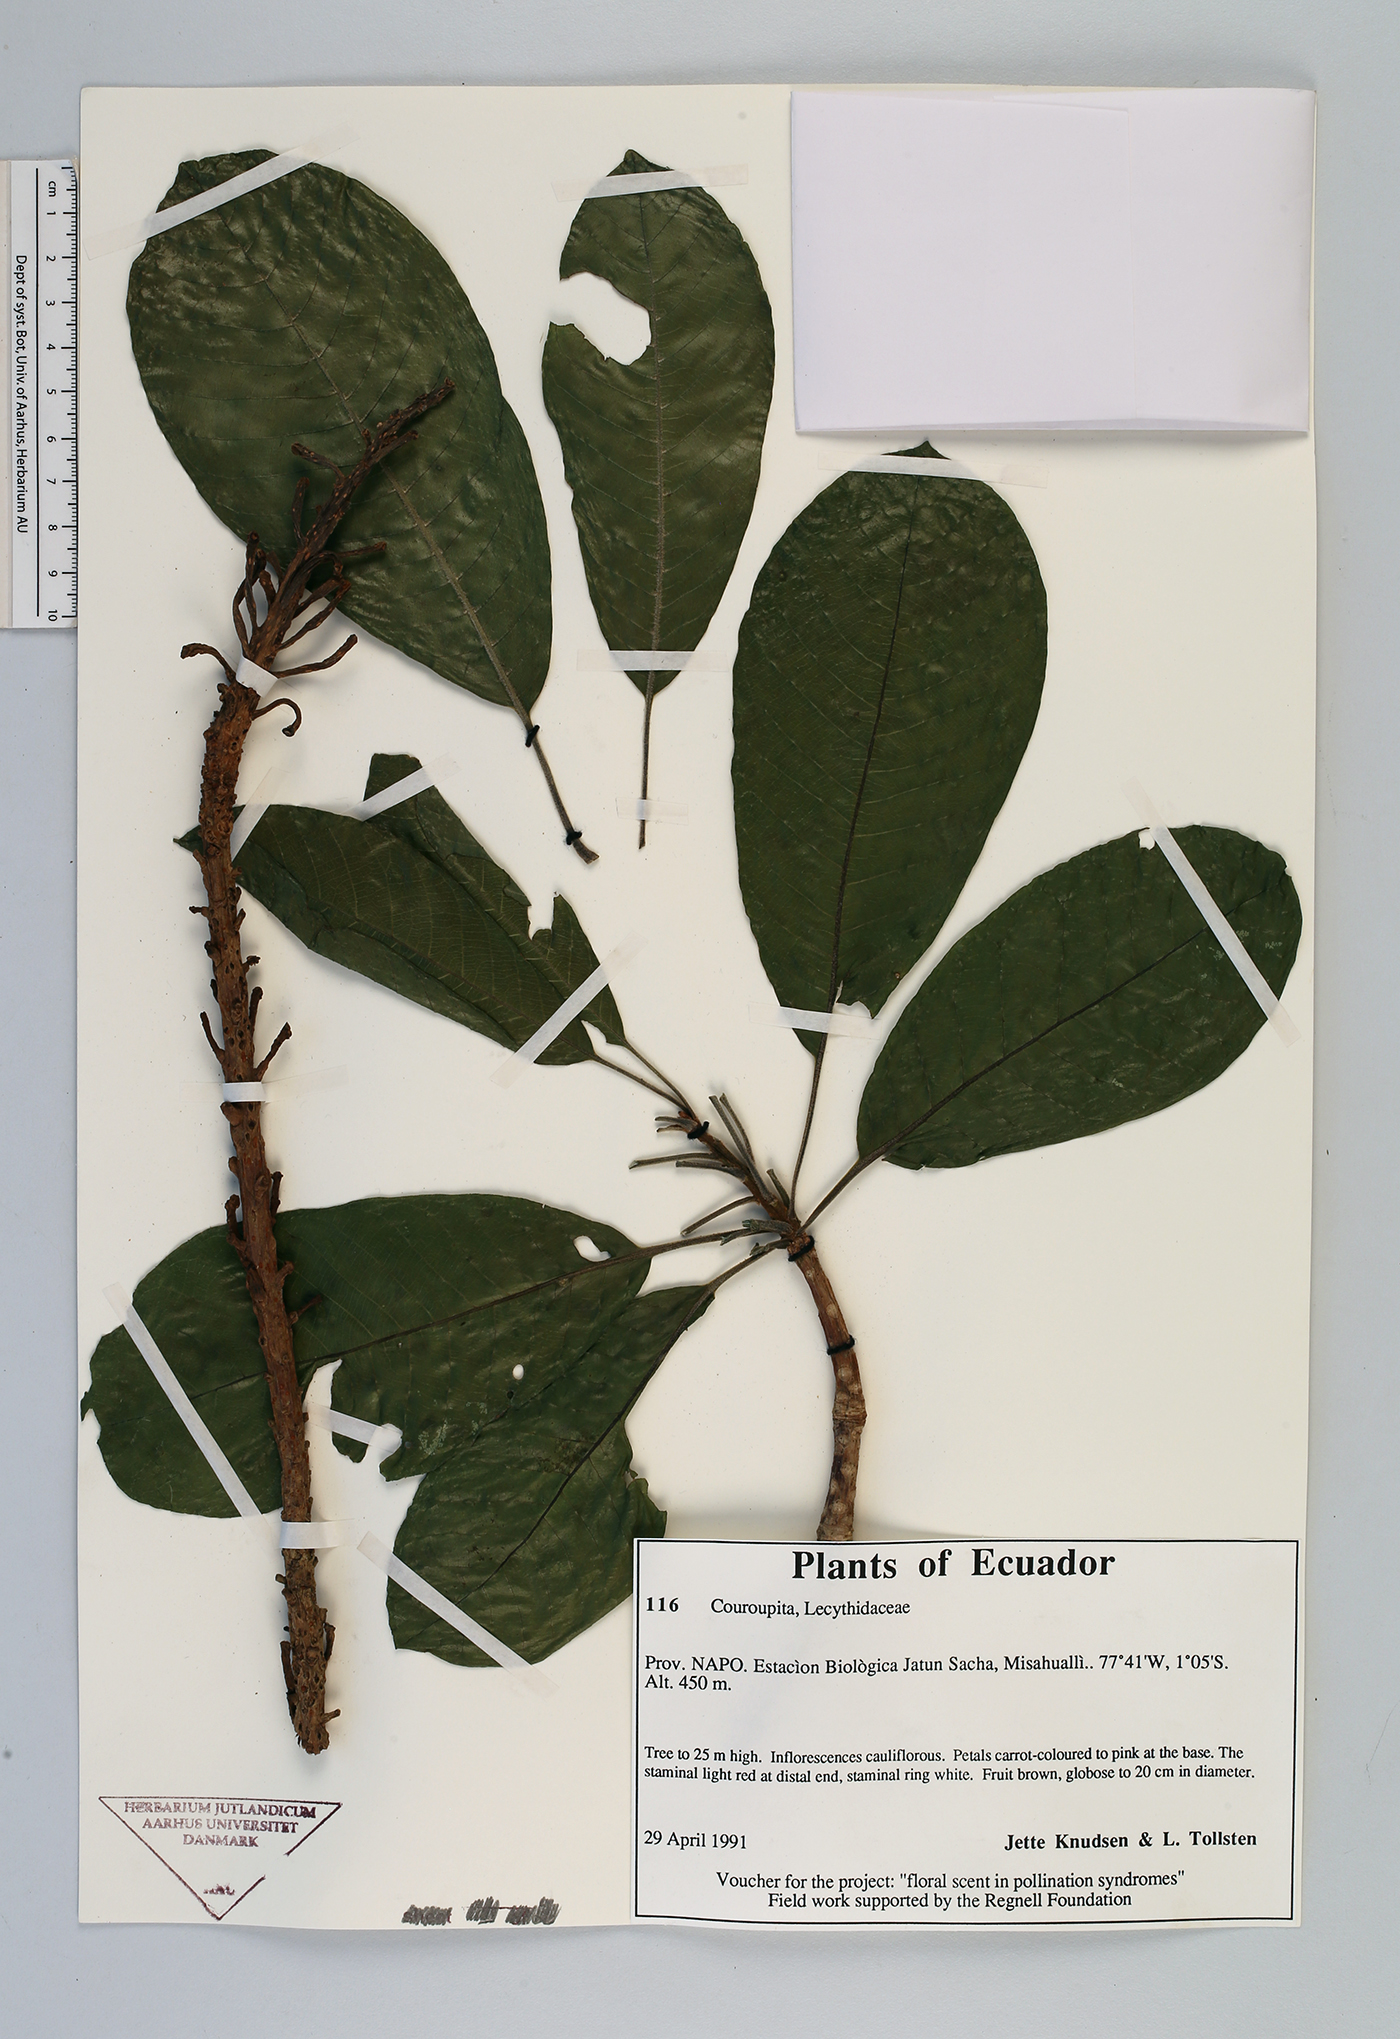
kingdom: Plantae
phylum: Tracheophyta
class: Magnoliopsida
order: Ericales
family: Lecythidaceae
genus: Couroupita
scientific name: Couroupita
